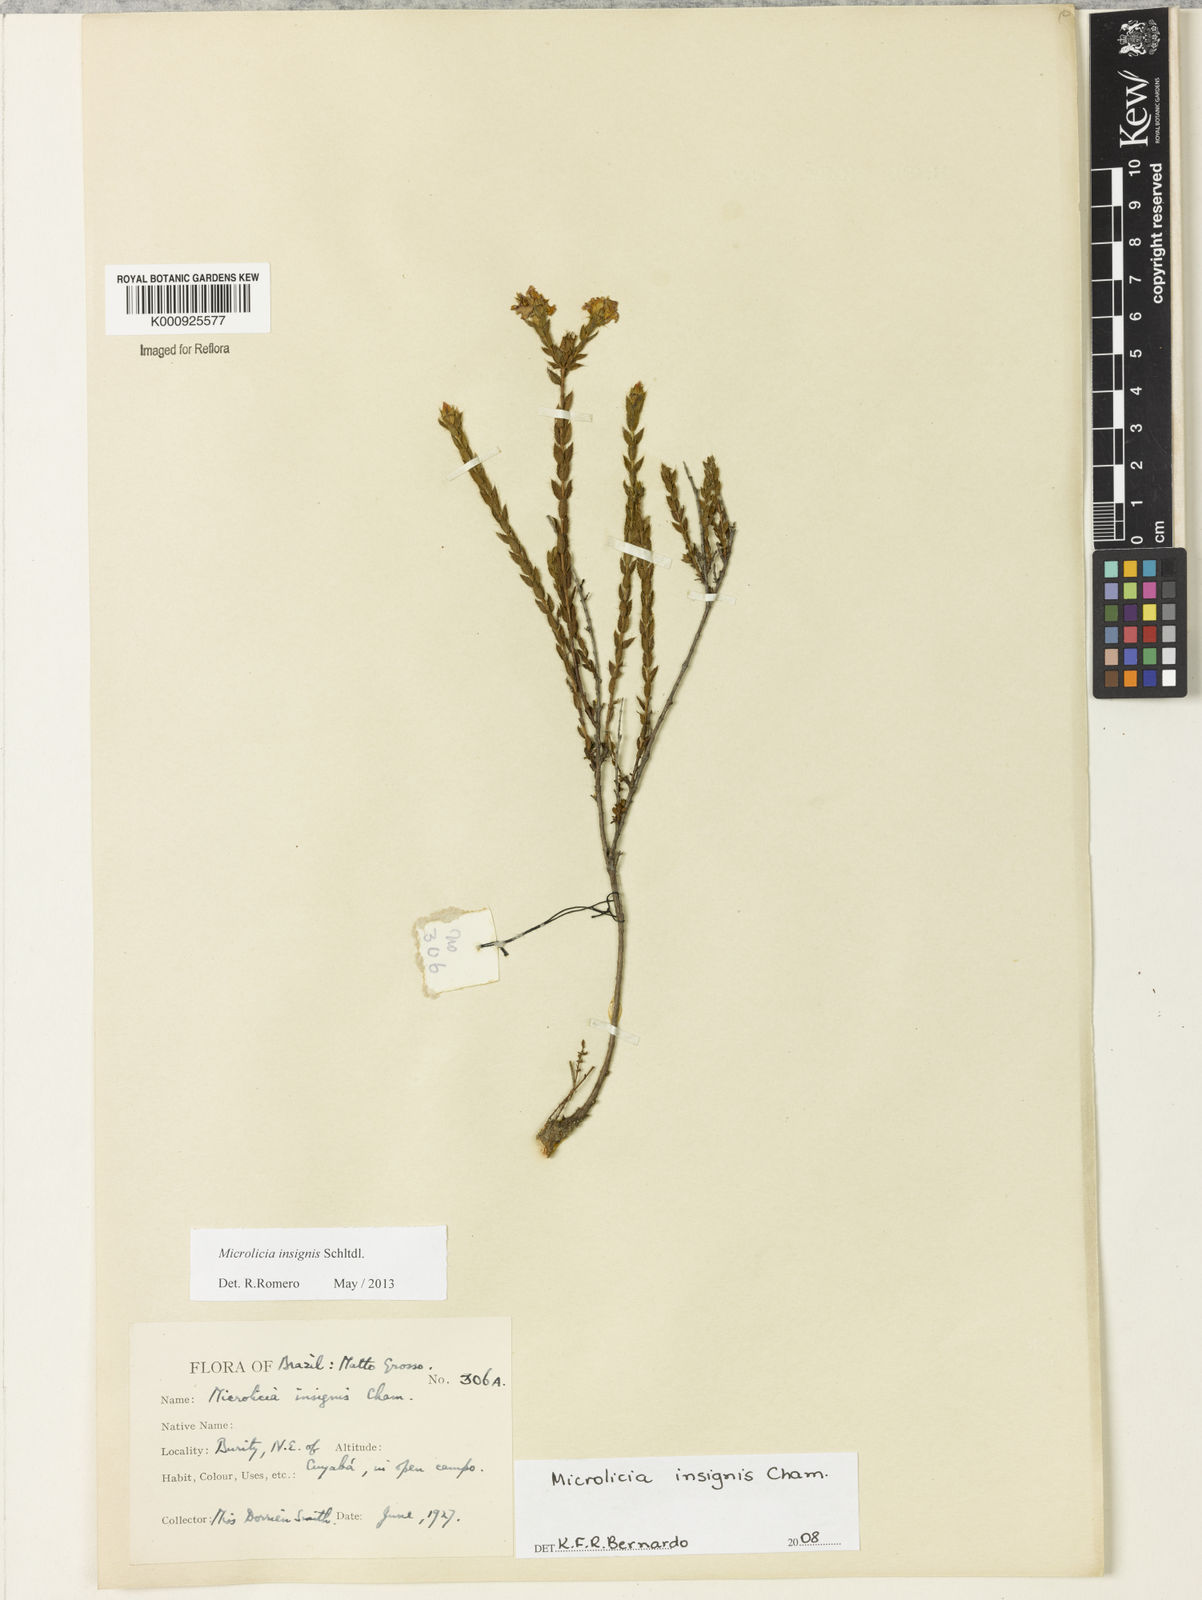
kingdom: Plantae
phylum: Tracheophyta
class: Magnoliopsida
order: Myrtales
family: Melastomataceae
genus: Microlicia
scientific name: Microlicia
